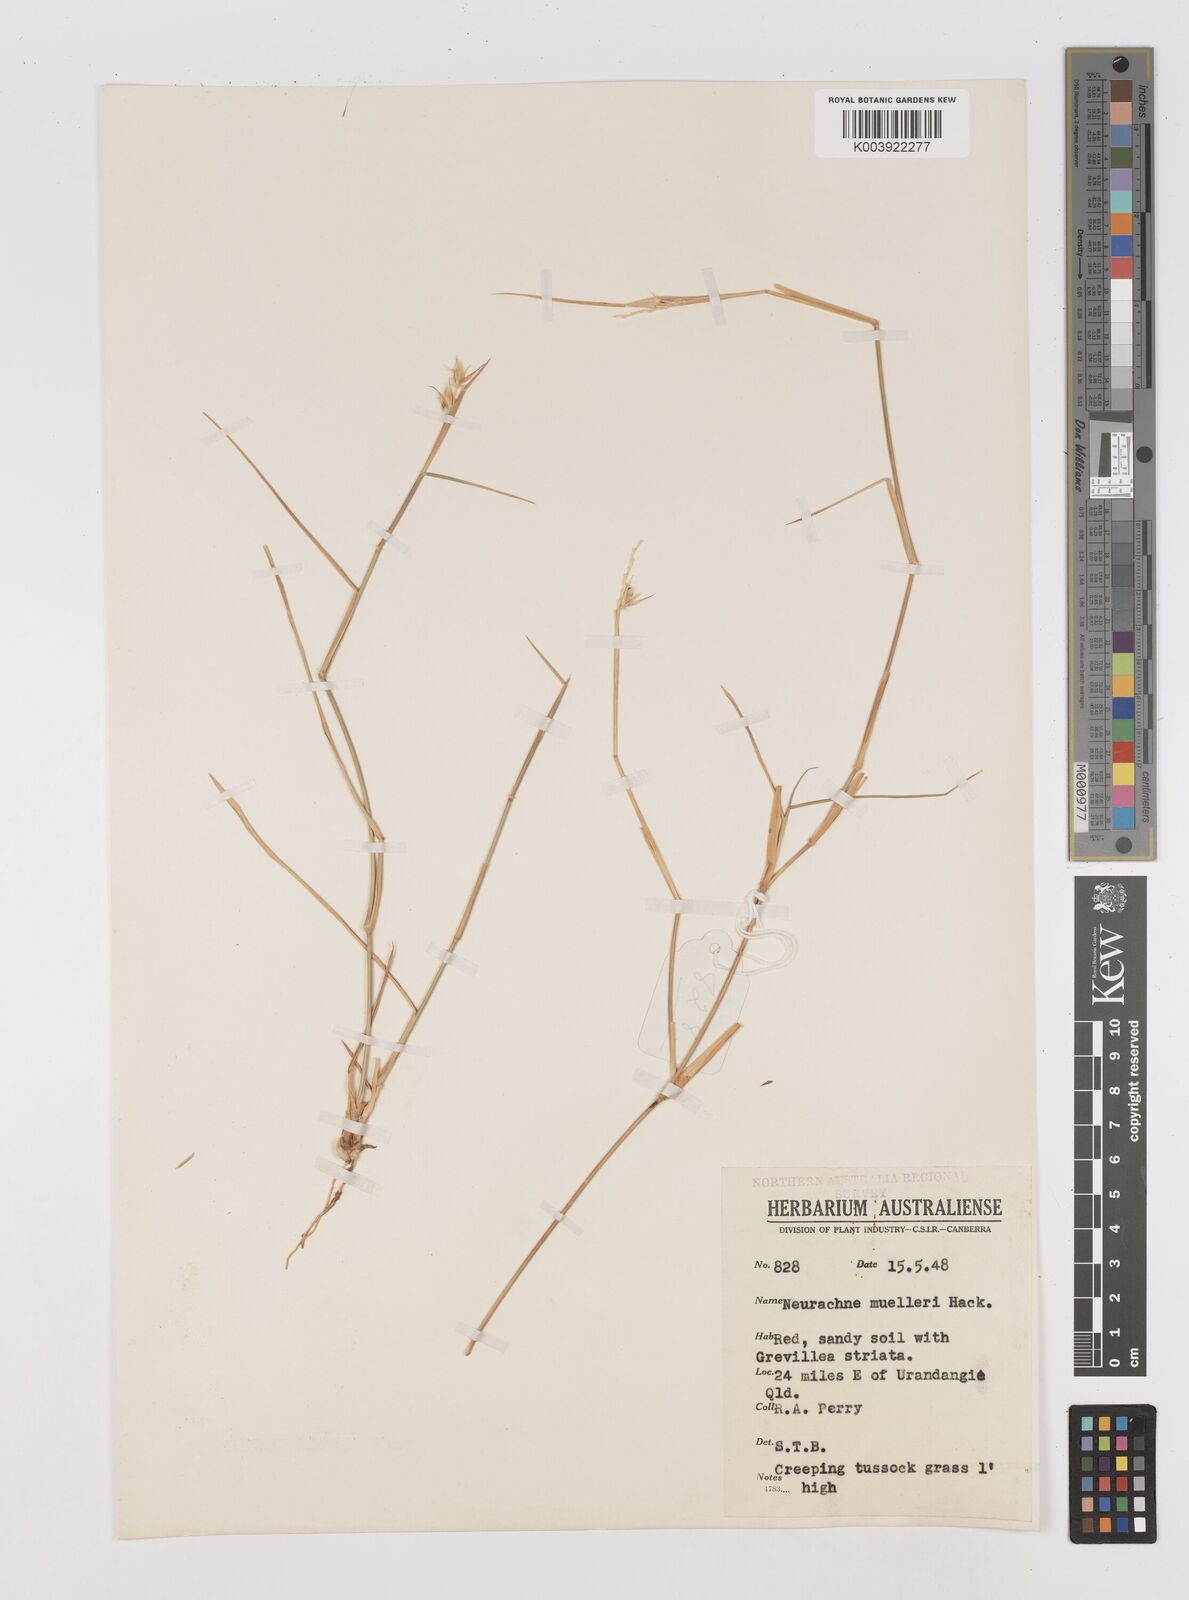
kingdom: Plantae
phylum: Tracheophyta
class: Liliopsida
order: Poales
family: Poaceae
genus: Neurachne
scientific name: Neurachne muelleri
